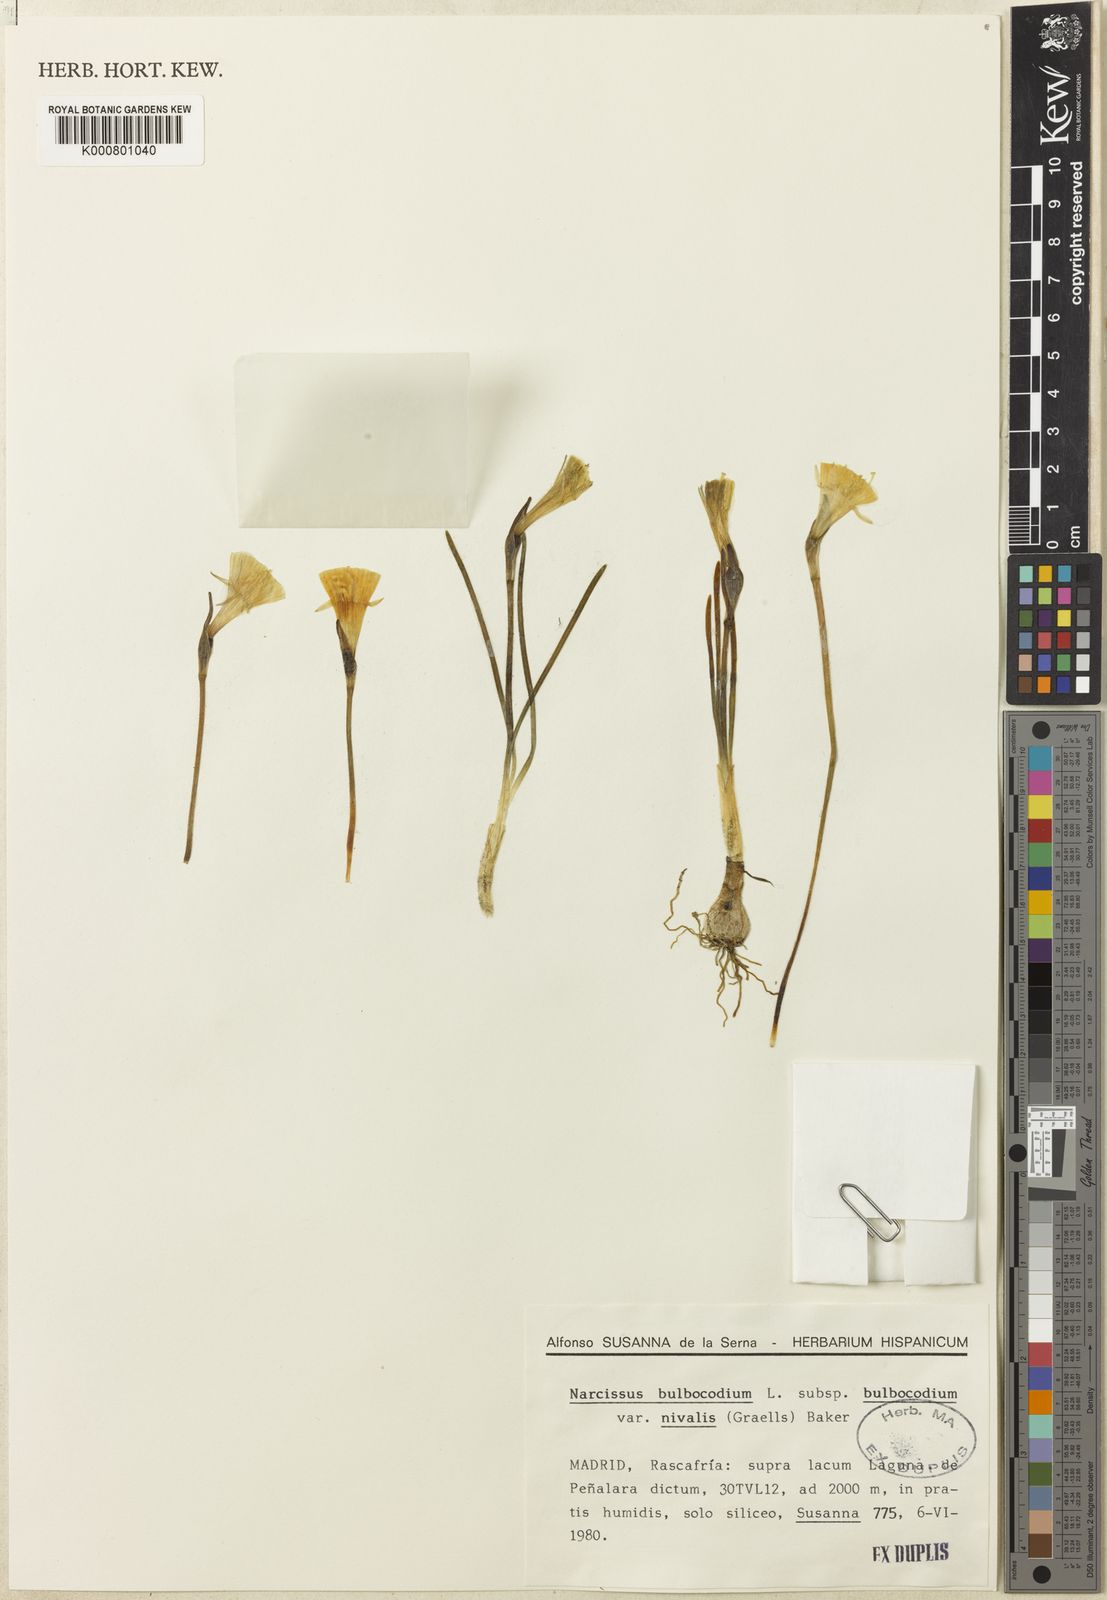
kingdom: Plantae
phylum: Tracheophyta
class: Liliopsida
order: Asparagales
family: Amaryllidaceae
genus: Narcissus
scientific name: Narcissus bulbocodium
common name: Hoop-petticoat daffodil
